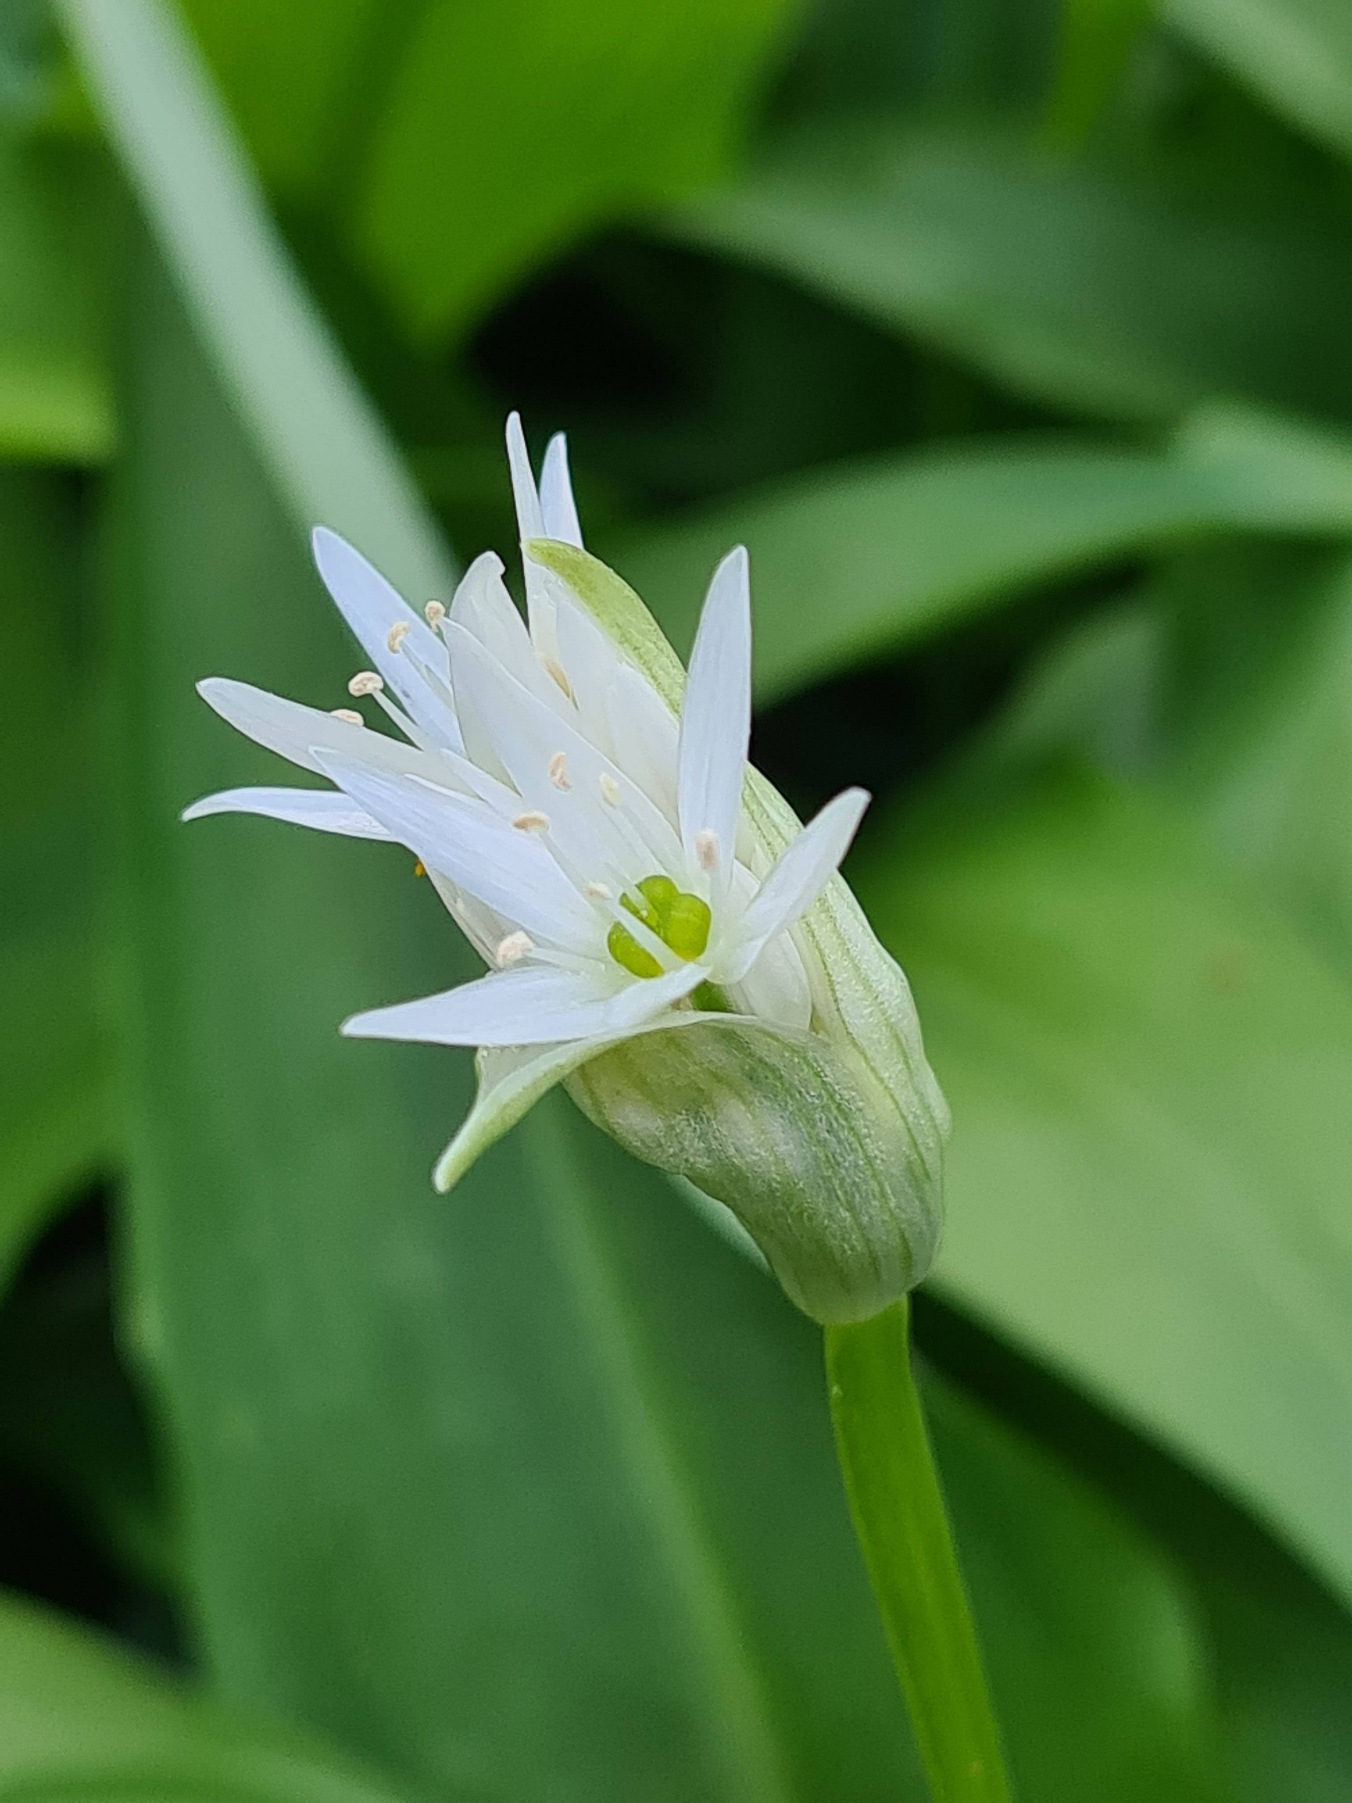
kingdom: Plantae
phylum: Tracheophyta
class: Liliopsida
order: Asparagales
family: Amaryllidaceae
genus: Allium
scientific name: Allium ursinum
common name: Rams-løg
